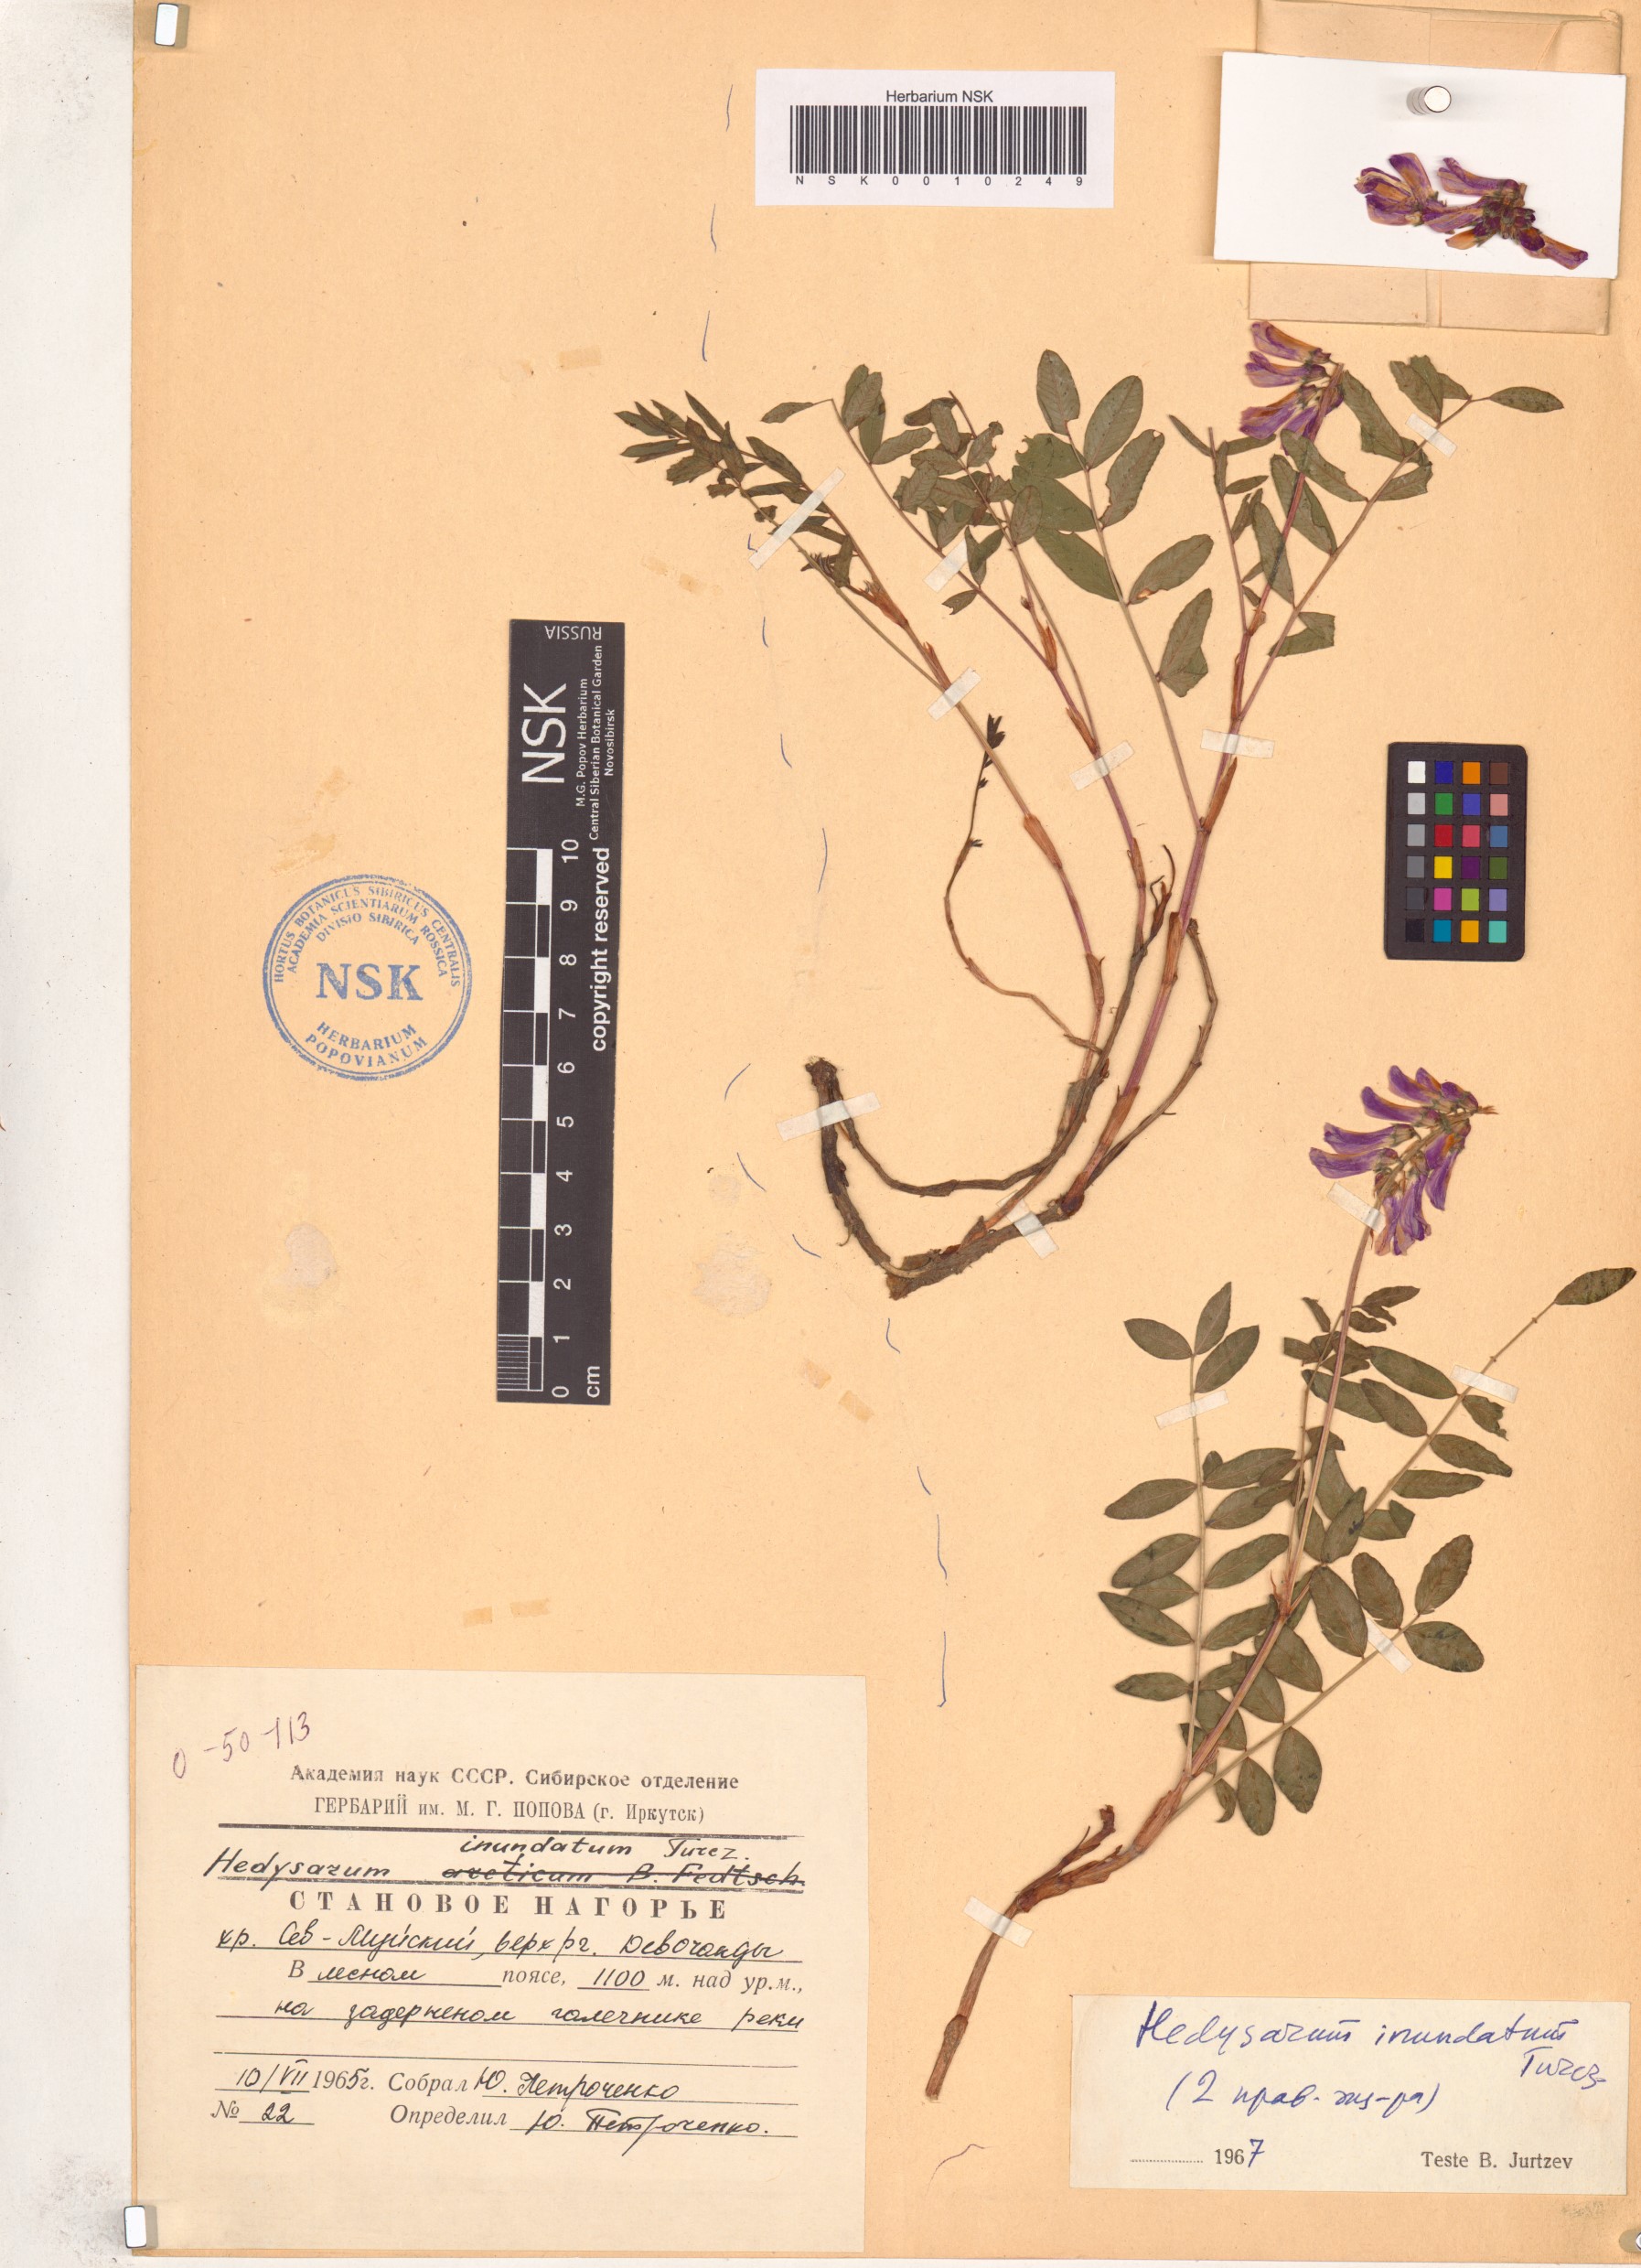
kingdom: Plantae
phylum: Tracheophyta
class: Magnoliopsida
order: Fabales
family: Fabaceae
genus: Hedysarum
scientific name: Hedysarum inundatum
